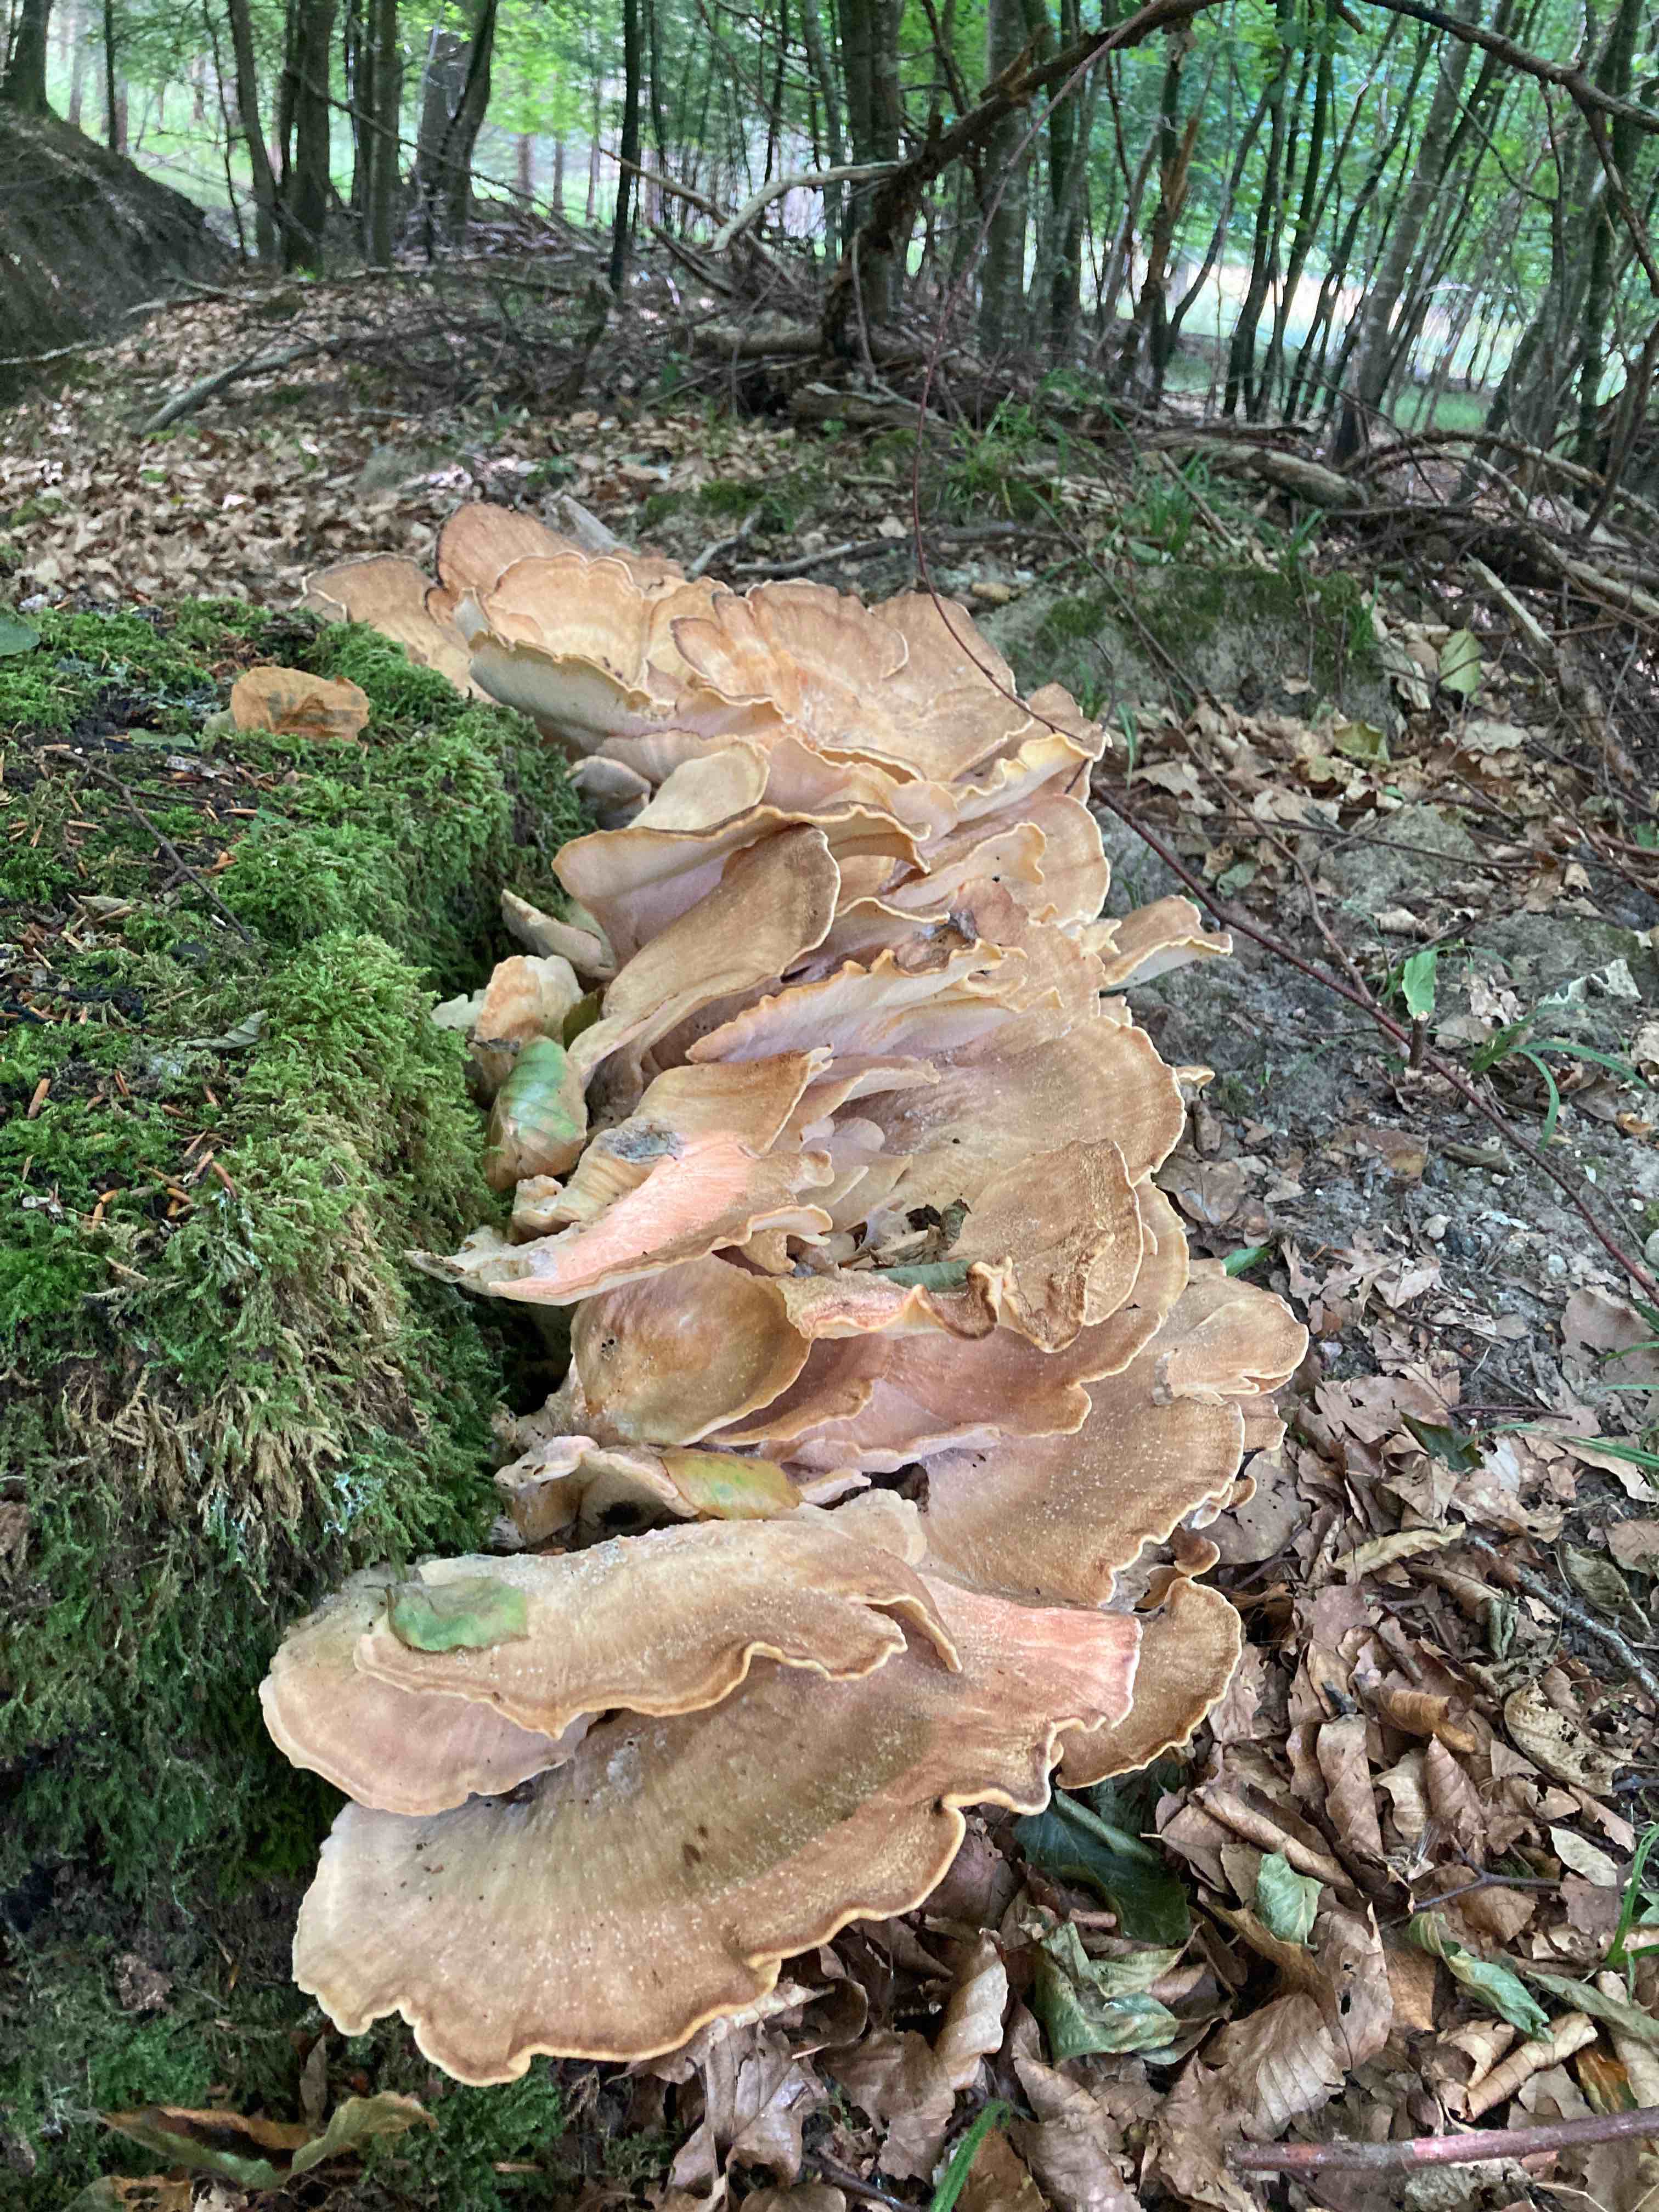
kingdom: Fungi
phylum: Basidiomycota
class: Agaricomycetes
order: Polyporales
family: Meripilaceae
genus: Meripilus
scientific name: Meripilus giganteus
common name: kæmpeporesvamp
